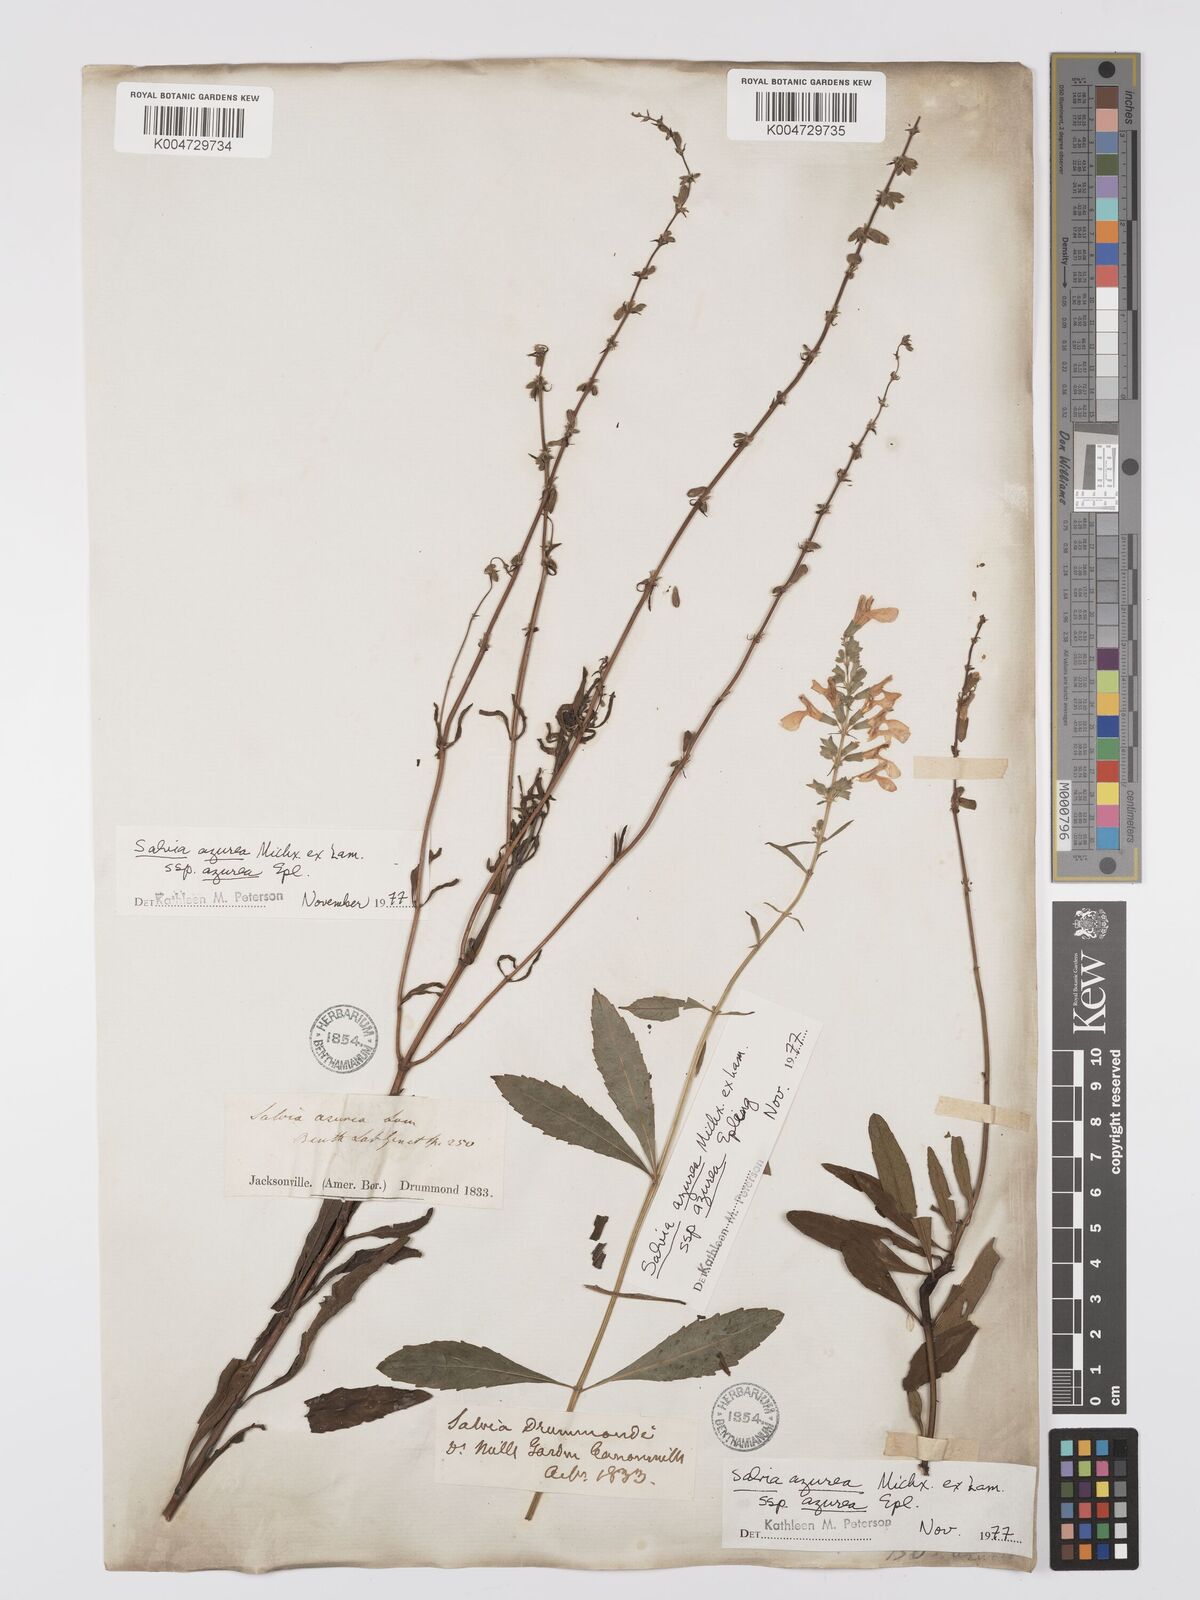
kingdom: Plantae
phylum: Tracheophyta
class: Magnoliopsida
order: Lamiales
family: Lamiaceae
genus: Salvia
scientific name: Salvia azurea
